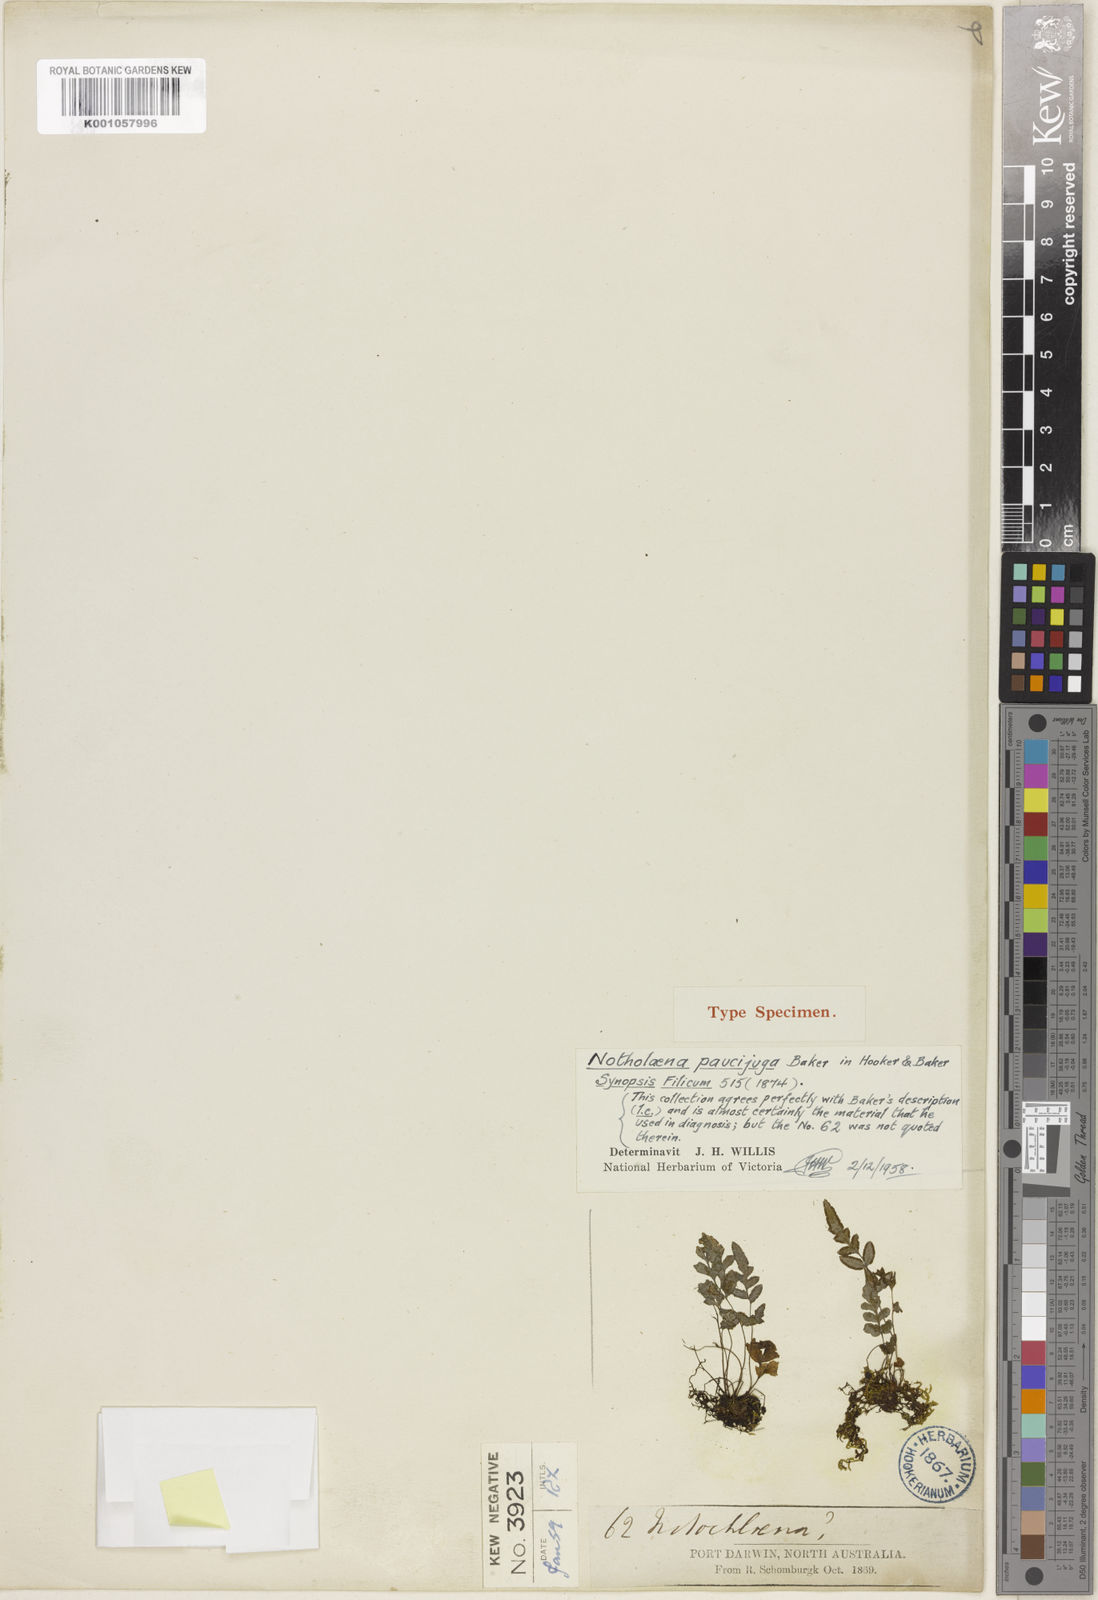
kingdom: Plantae
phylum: Tracheophyta
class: Polypodiopsida
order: Polypodiales
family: Pteridaceae
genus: Cheilanthes
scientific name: Cheilanthes pumilio
